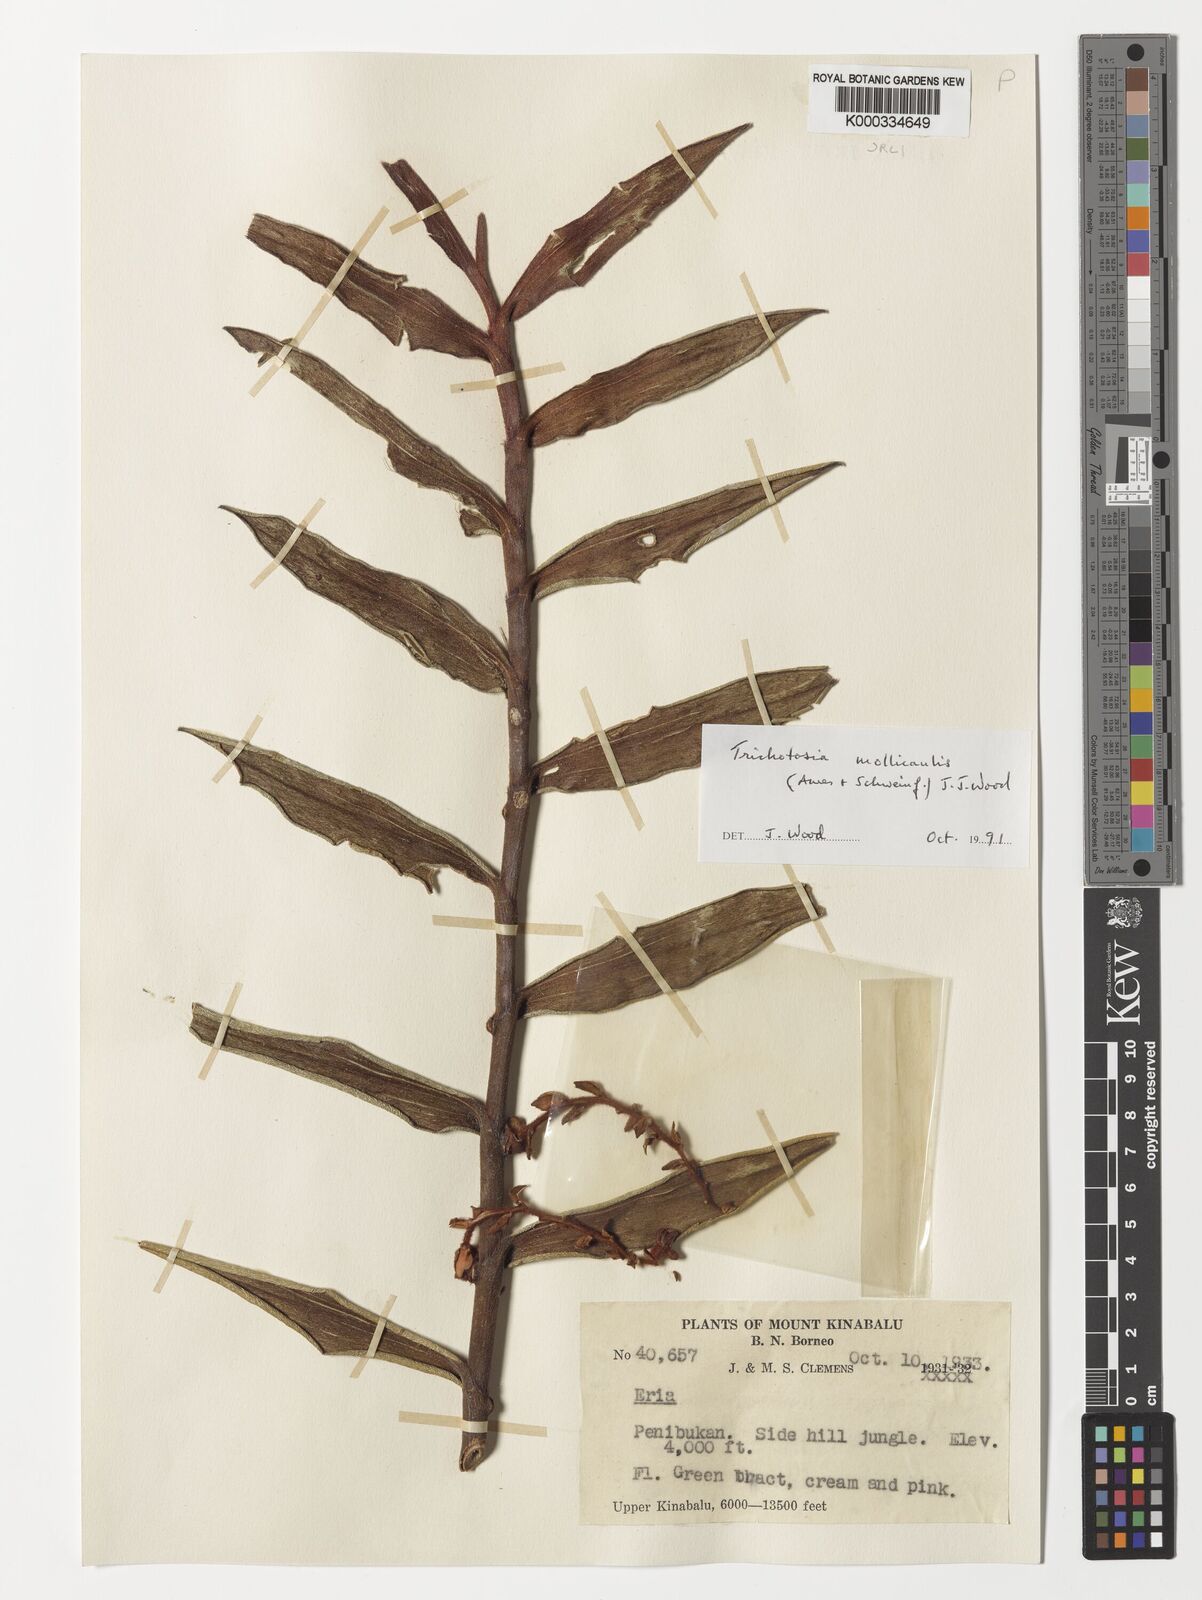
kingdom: Plantae
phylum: Tracheophyta
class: Liliopsida
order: Asparagales
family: Orchidaceae
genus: Trichotosia
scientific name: Trichotosia mollicaulis
